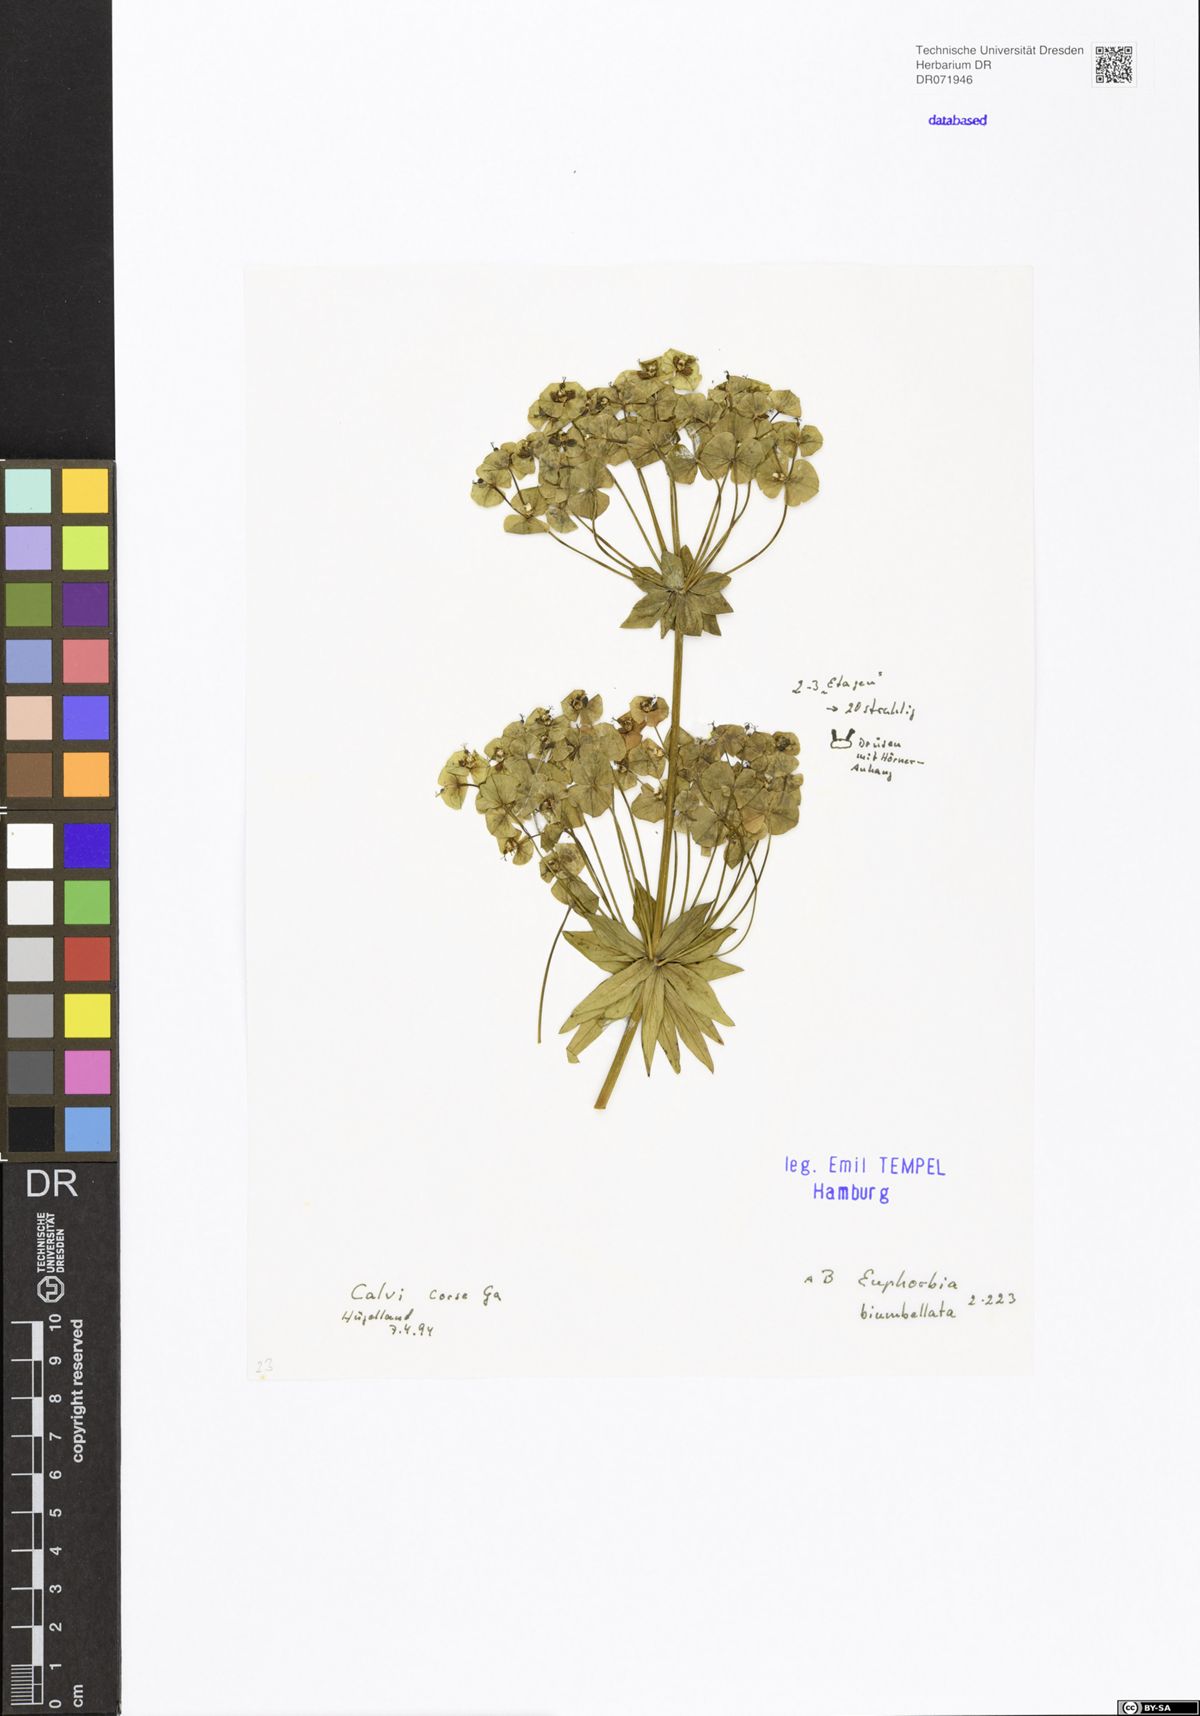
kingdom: Plantae
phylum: Tracheophyta
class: Magnoliopsida
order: Malpighiales
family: Euphorbiaceae
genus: Euphorbia
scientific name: Euphorbia biumbellata
